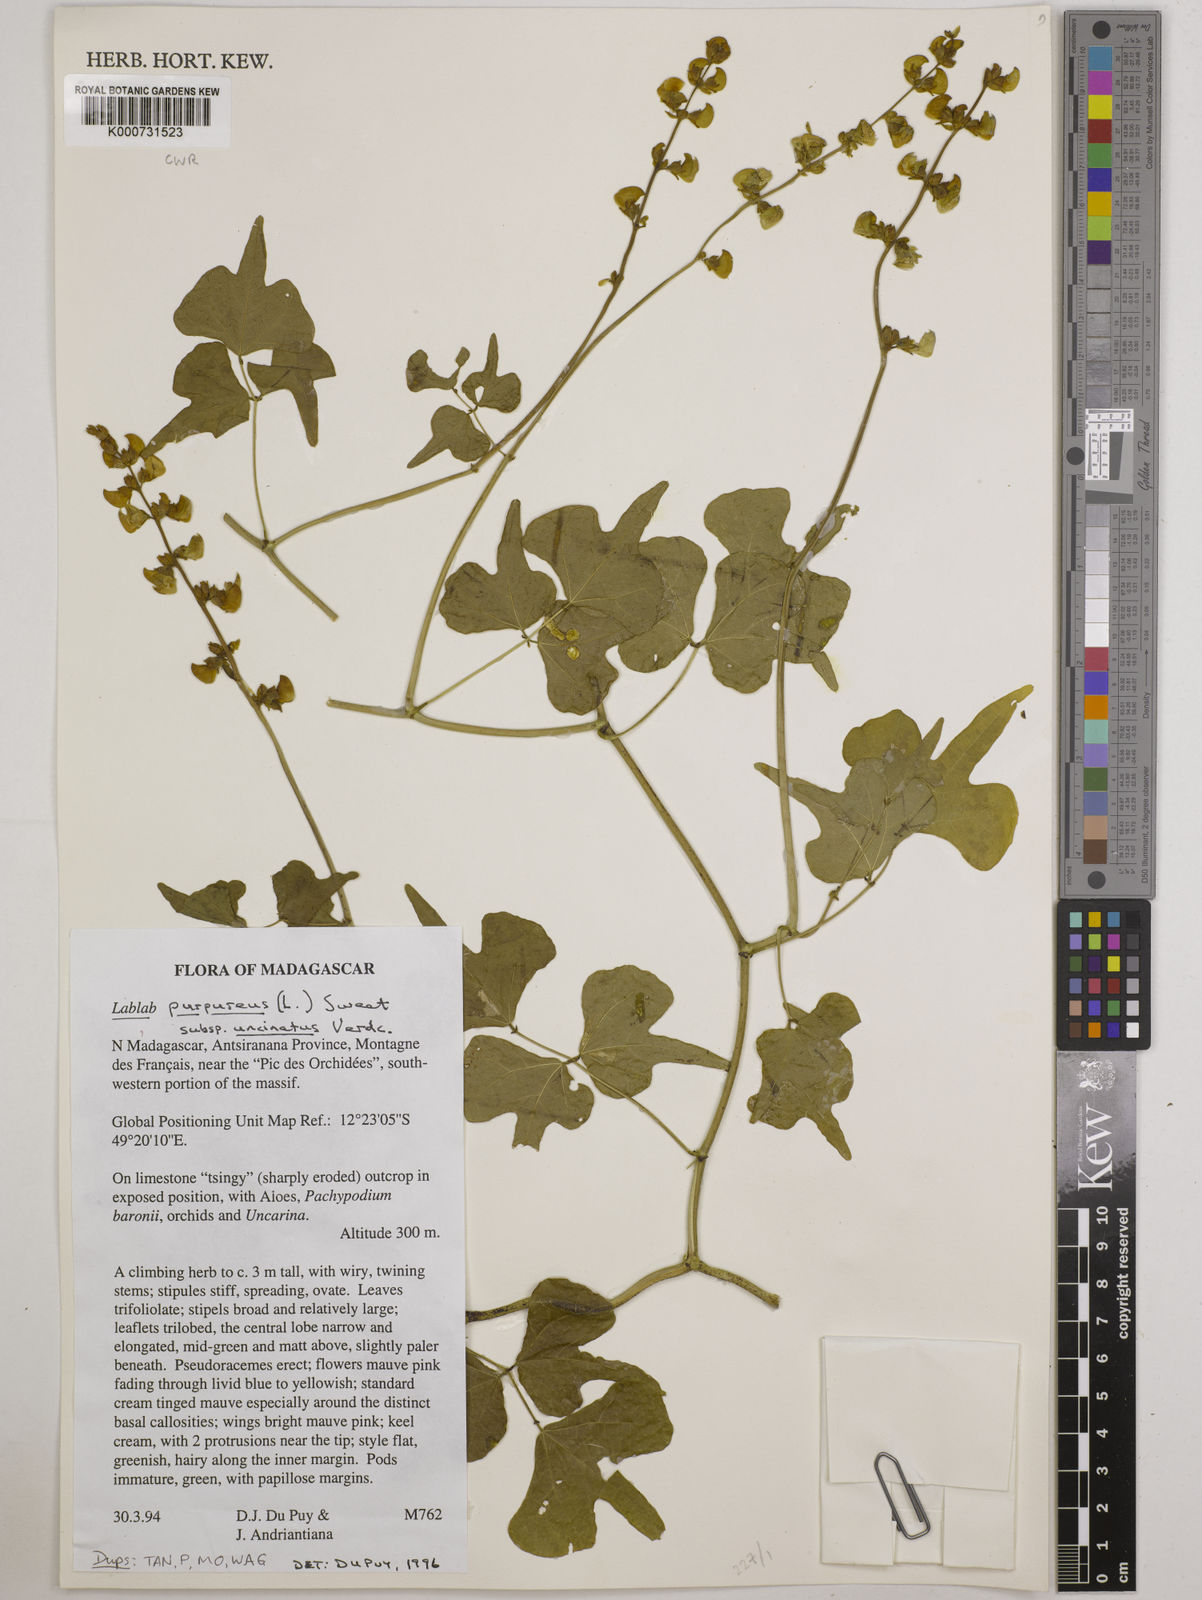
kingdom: Plantae
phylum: Tracheophyta
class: Magnoliopsida
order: Fabales
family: Fabaceae
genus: Lablab
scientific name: Lablab purpureus
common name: Lablab-bean
